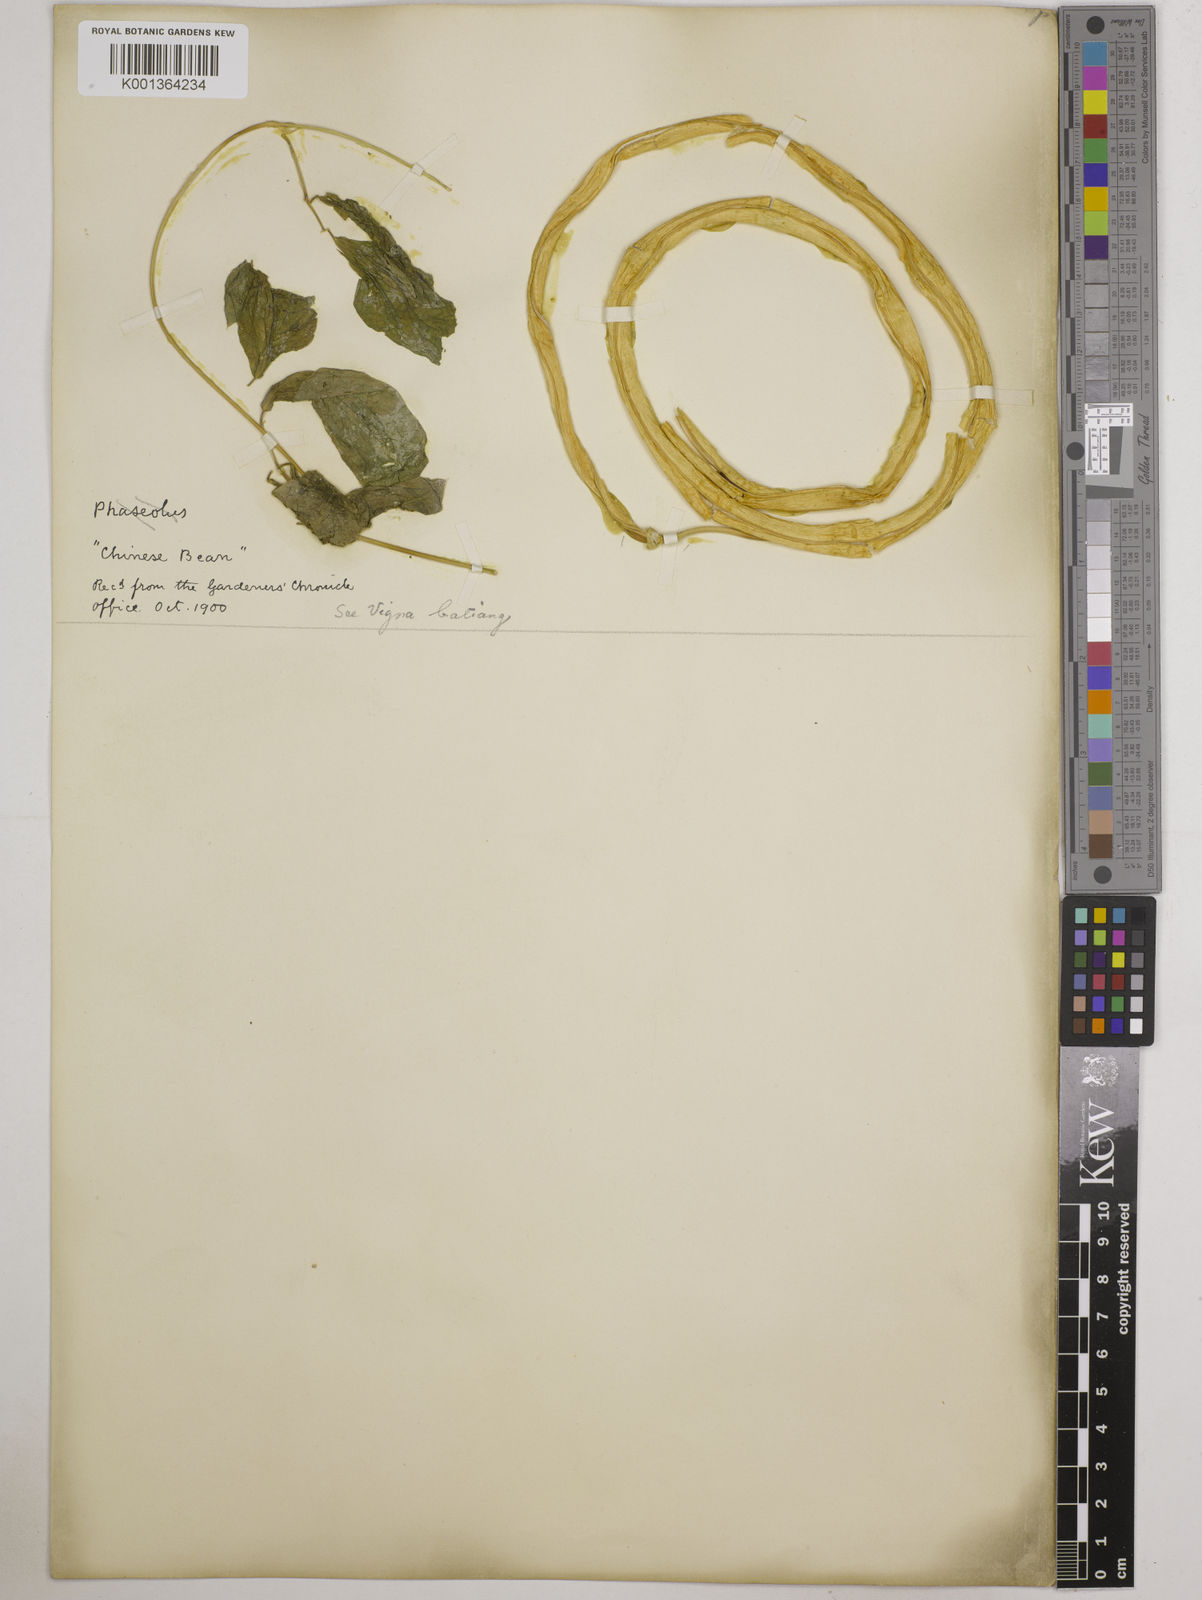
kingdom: Plantae
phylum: Tracheophyta
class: Magnoliopsida
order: Fabales
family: Fabaceae
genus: Vigna
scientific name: Vigna unguiculata
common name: Cowpea
